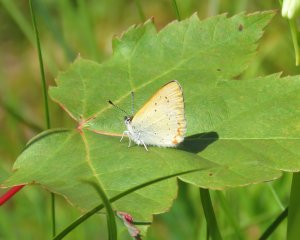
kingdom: Animalia
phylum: Arthropoda
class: Insecta
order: Lepidoptera
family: Sesiidae
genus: Sesia
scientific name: Sesia Lycaena epixanthe
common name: Bog Copper
